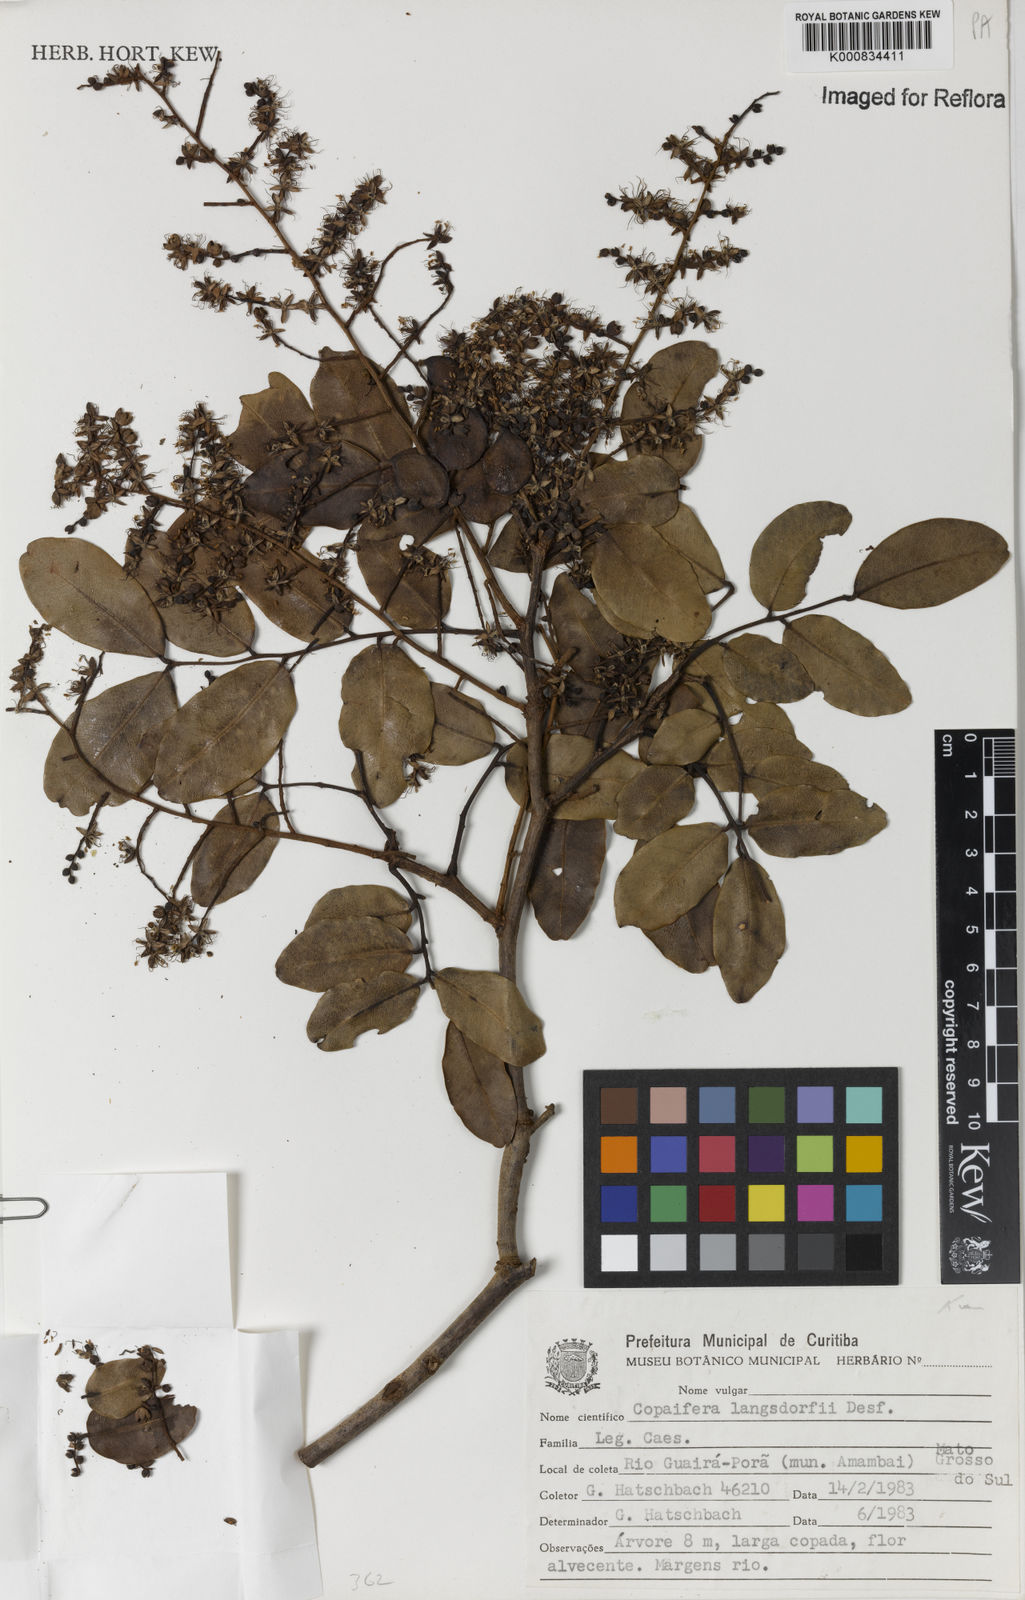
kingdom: Plantae
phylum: Tracheophyta
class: Magnoliopsida
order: Fabales
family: Fabaceae
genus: Copaifera
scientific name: Copaifera langsdorffii
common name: Brazilian diesel tree
